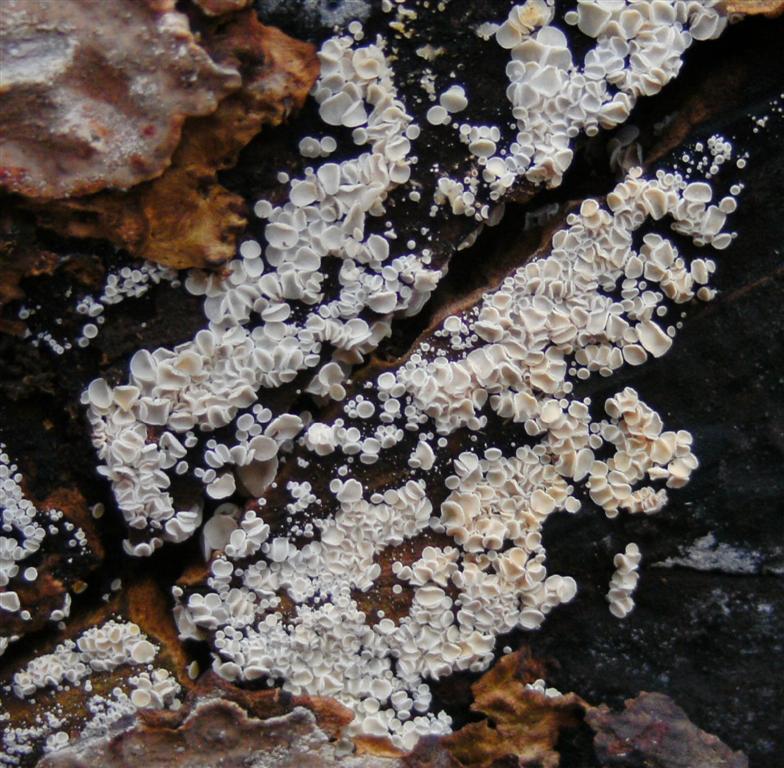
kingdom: Fungi
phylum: Ascomycota
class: Leotiomycetes
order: Helotiales
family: Lachnaceae
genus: Lachnum
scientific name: Lachnum impudicum
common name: vinter-frynseskive
